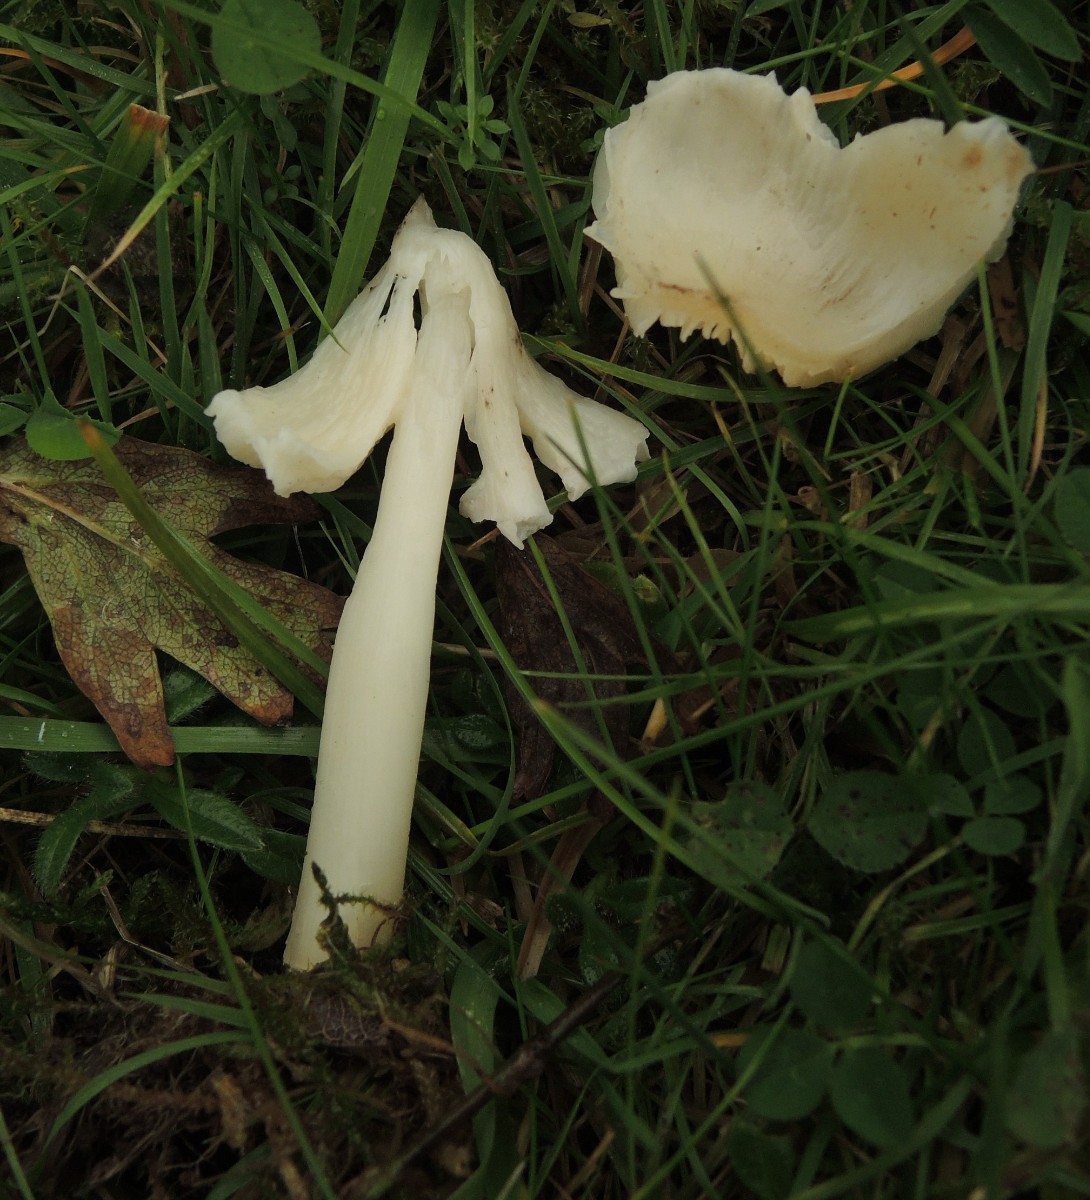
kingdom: Fungi
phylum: Basidiomycota
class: Agaricomycetes
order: Agaricales
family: Hygrophoraceae
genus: Porpolomopsis
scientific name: Porpolomopsis calyptriformis
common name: rosenrød vokshat
